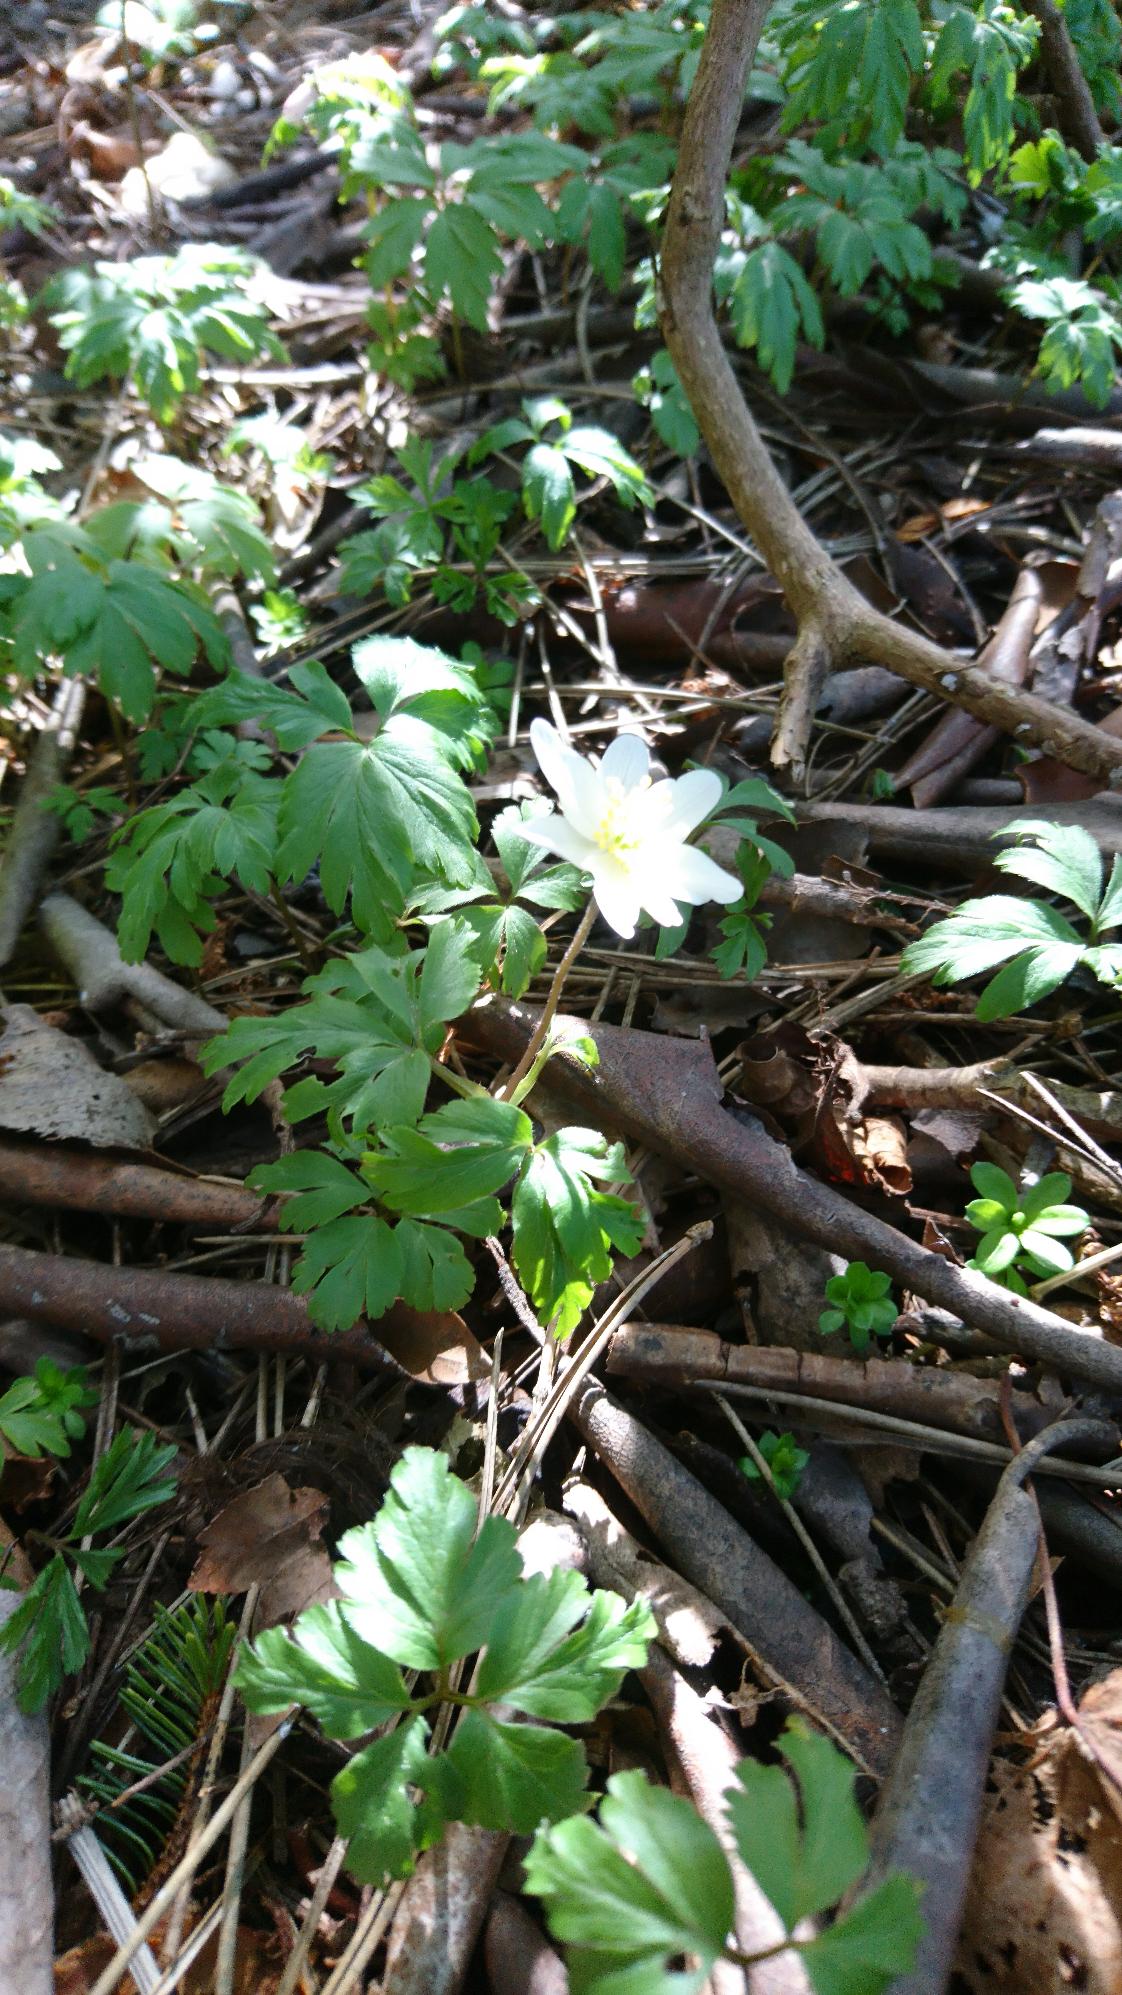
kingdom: Plantae
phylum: Tracheophyta
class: Magnoliopsida
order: Ranunculales
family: Ranunculaceae
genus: Anemone
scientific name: Anemone nemorosa
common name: Hvid anemone
